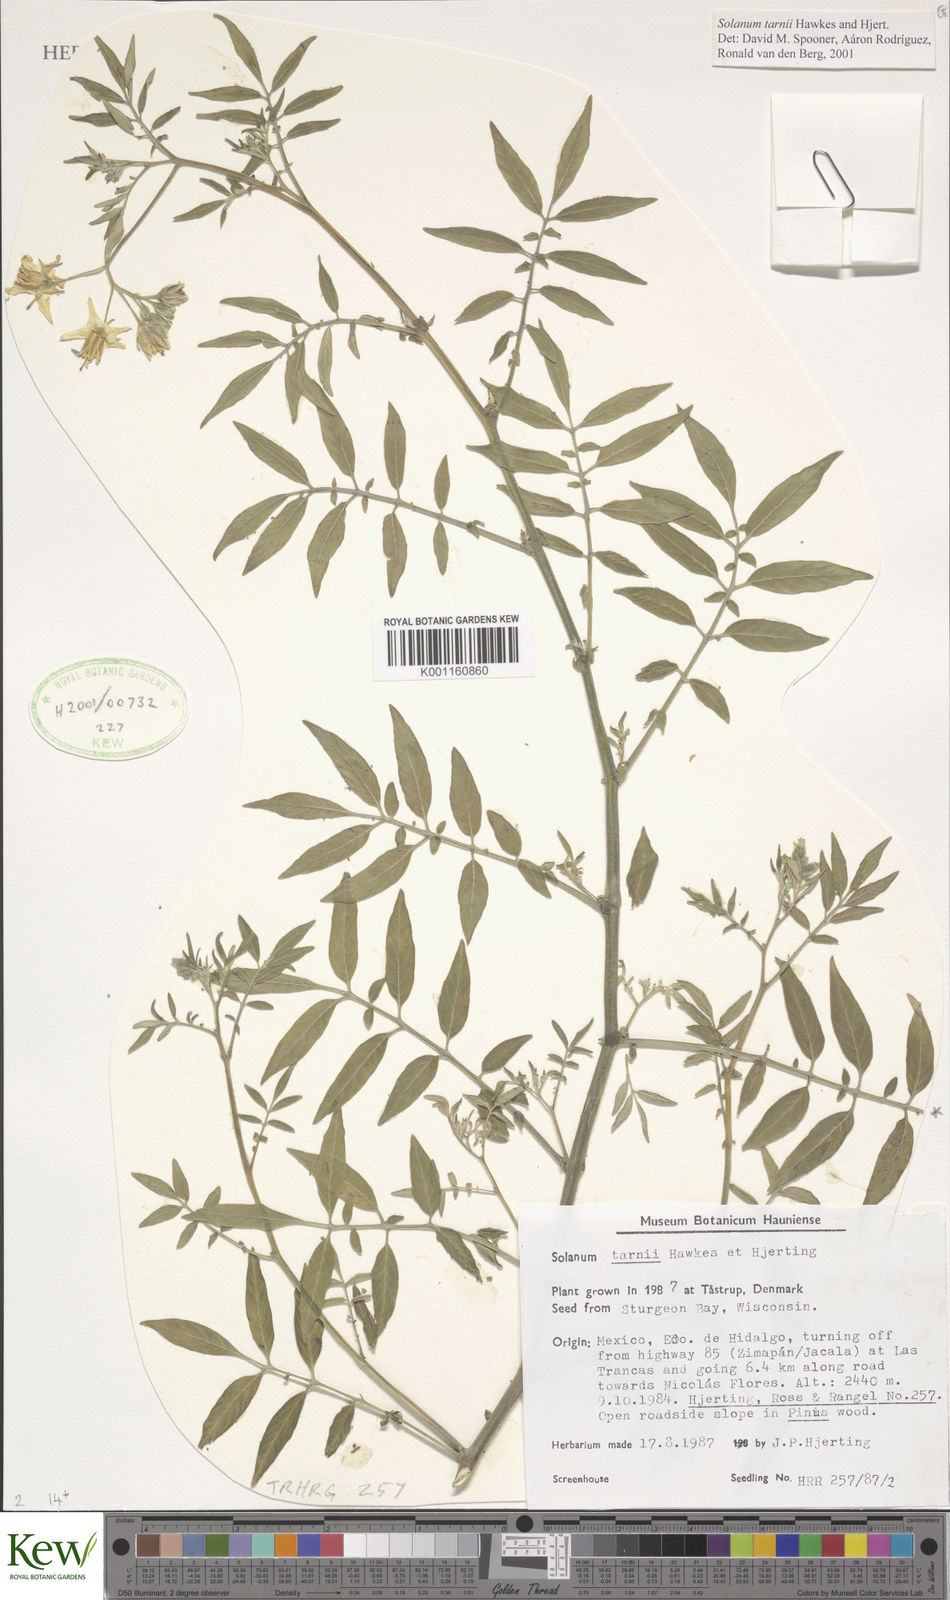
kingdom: Plantae
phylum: Tracheophyta
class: Magnoliopsida
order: Solanales
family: Solanaceae
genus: Solanum
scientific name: Solanum tarnii
